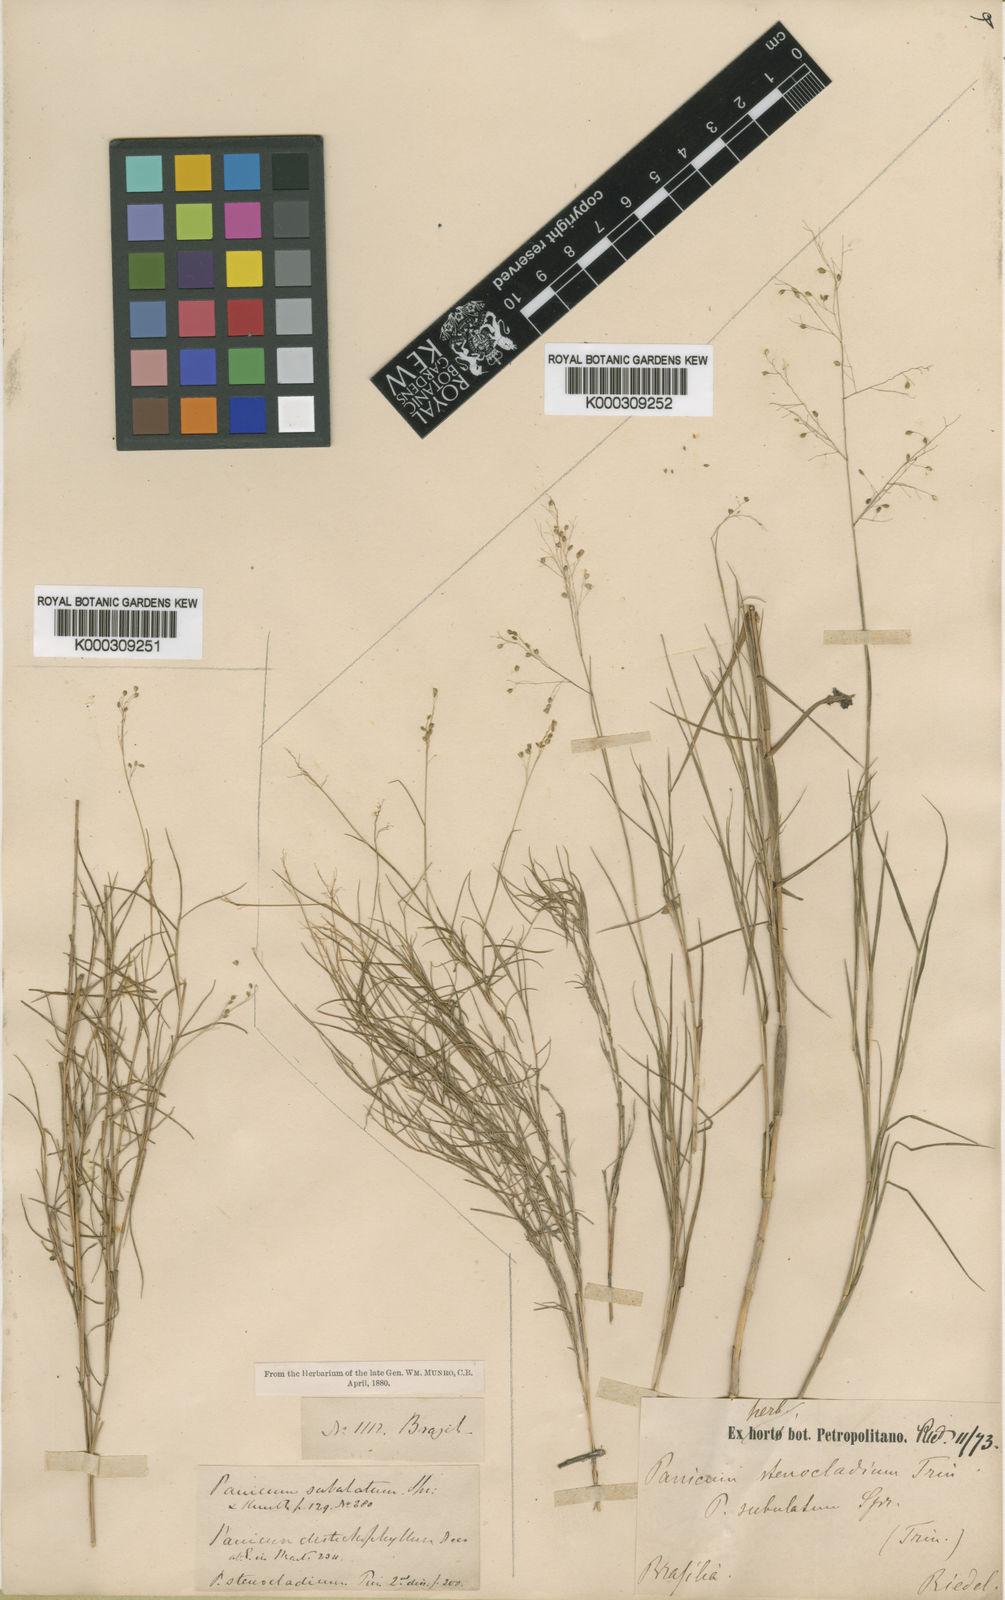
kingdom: Plantae
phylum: Tracheophyta
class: Liliopsida
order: Poales
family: Poaceae
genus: Trichanthecium
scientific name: Trichanthecium distichophyllum
